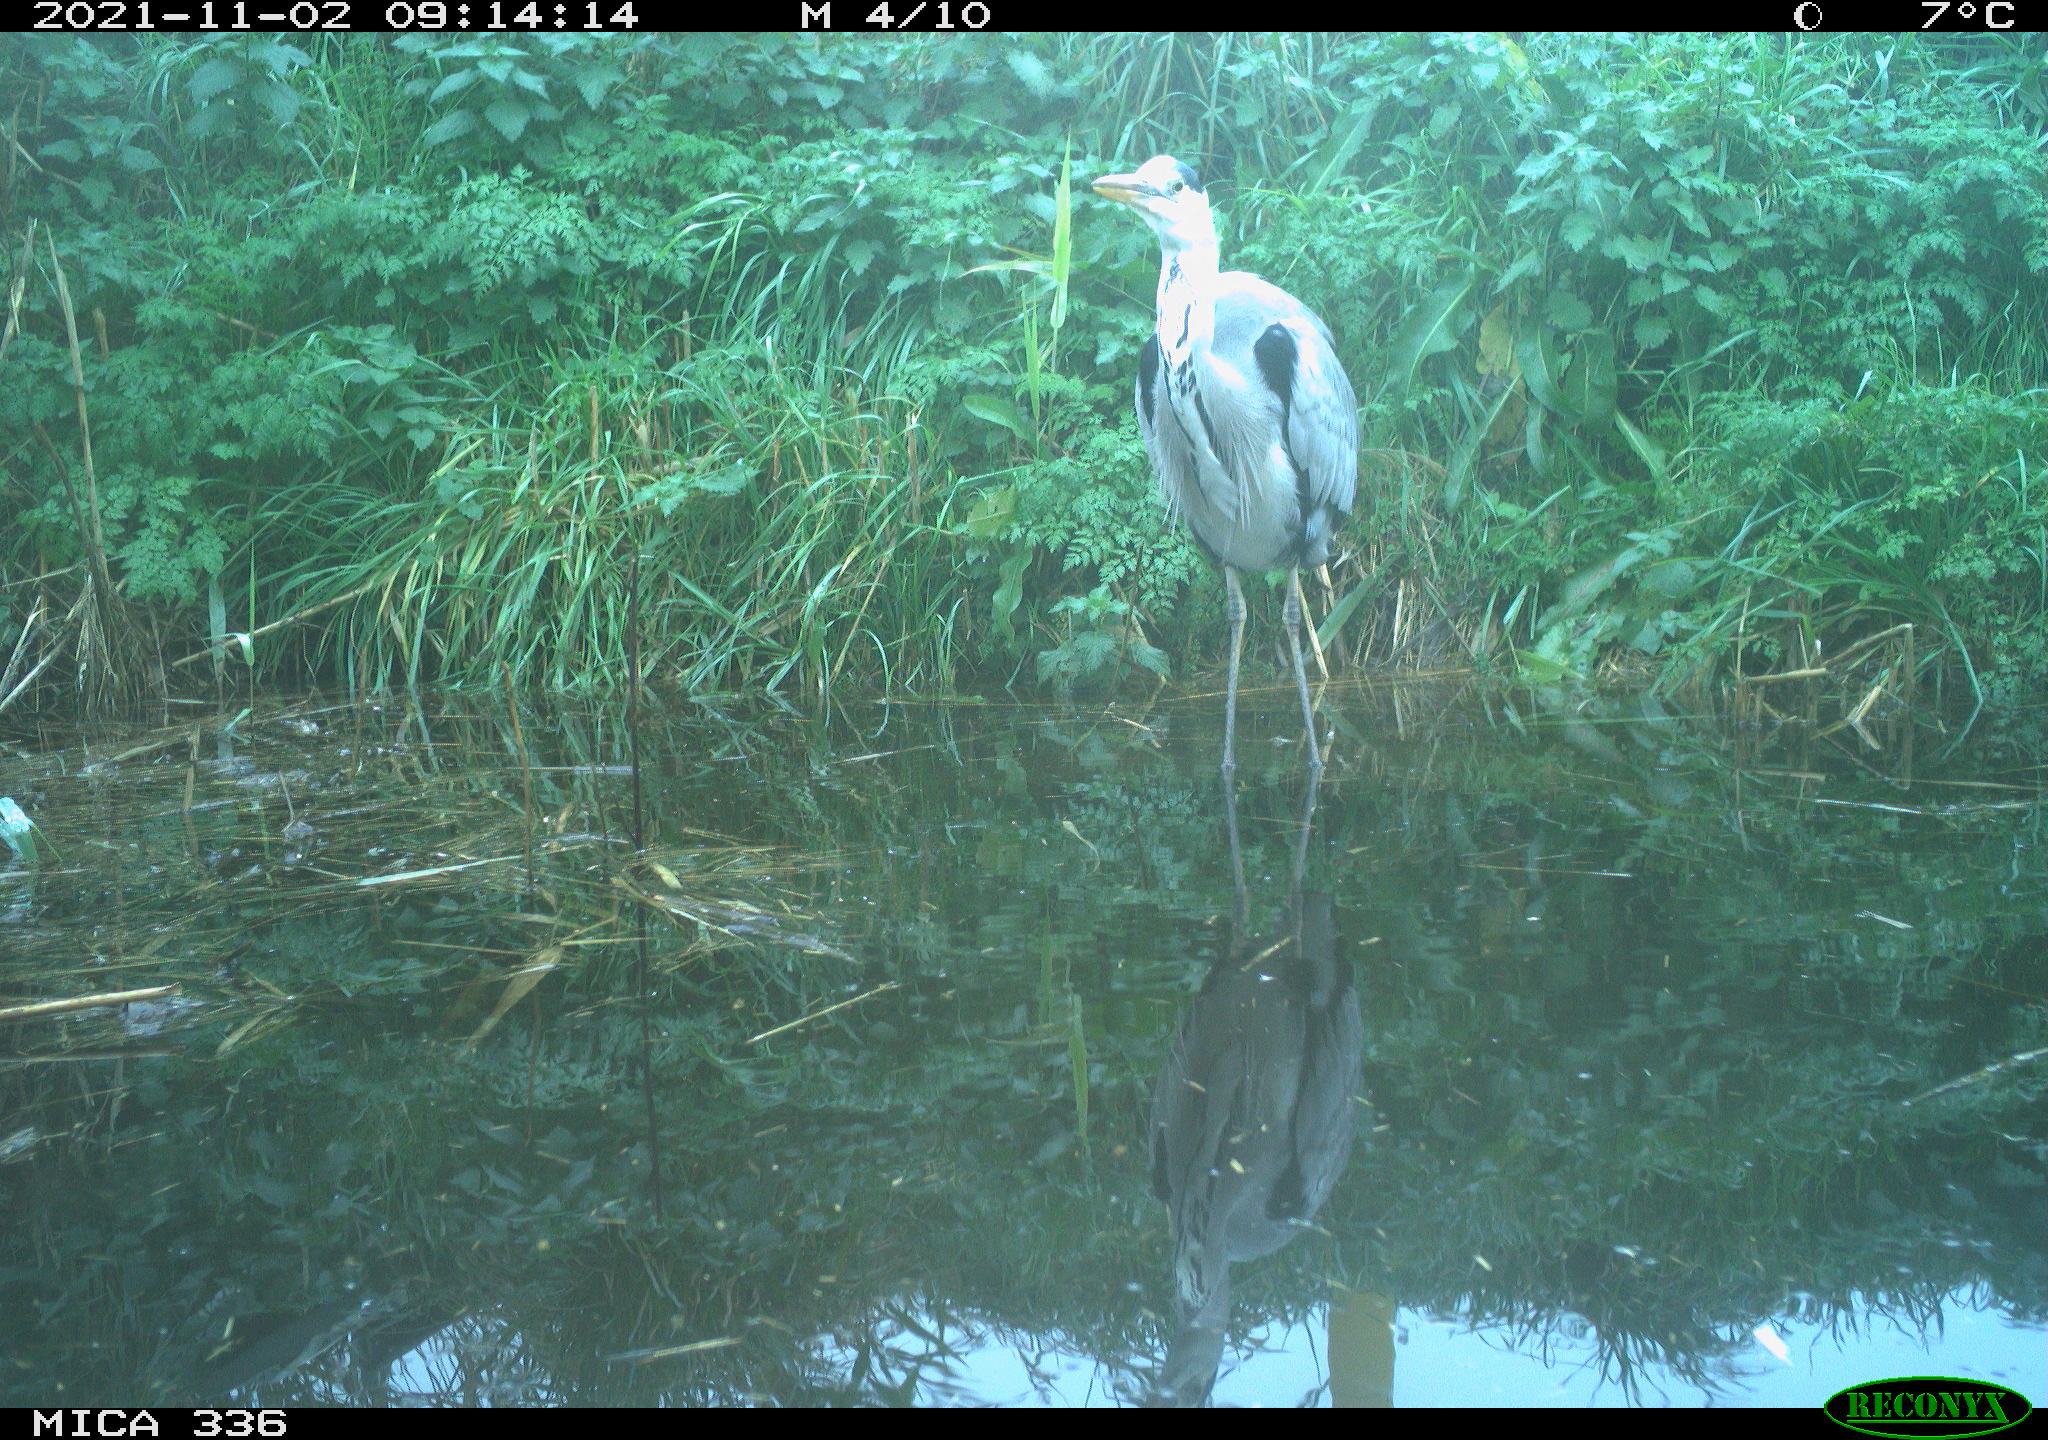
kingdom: Animalia
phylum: Chordata
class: Aves
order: Pelecaniformes
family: Ardeidae
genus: Ardea
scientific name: Ardea cinerea
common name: Grey heron
